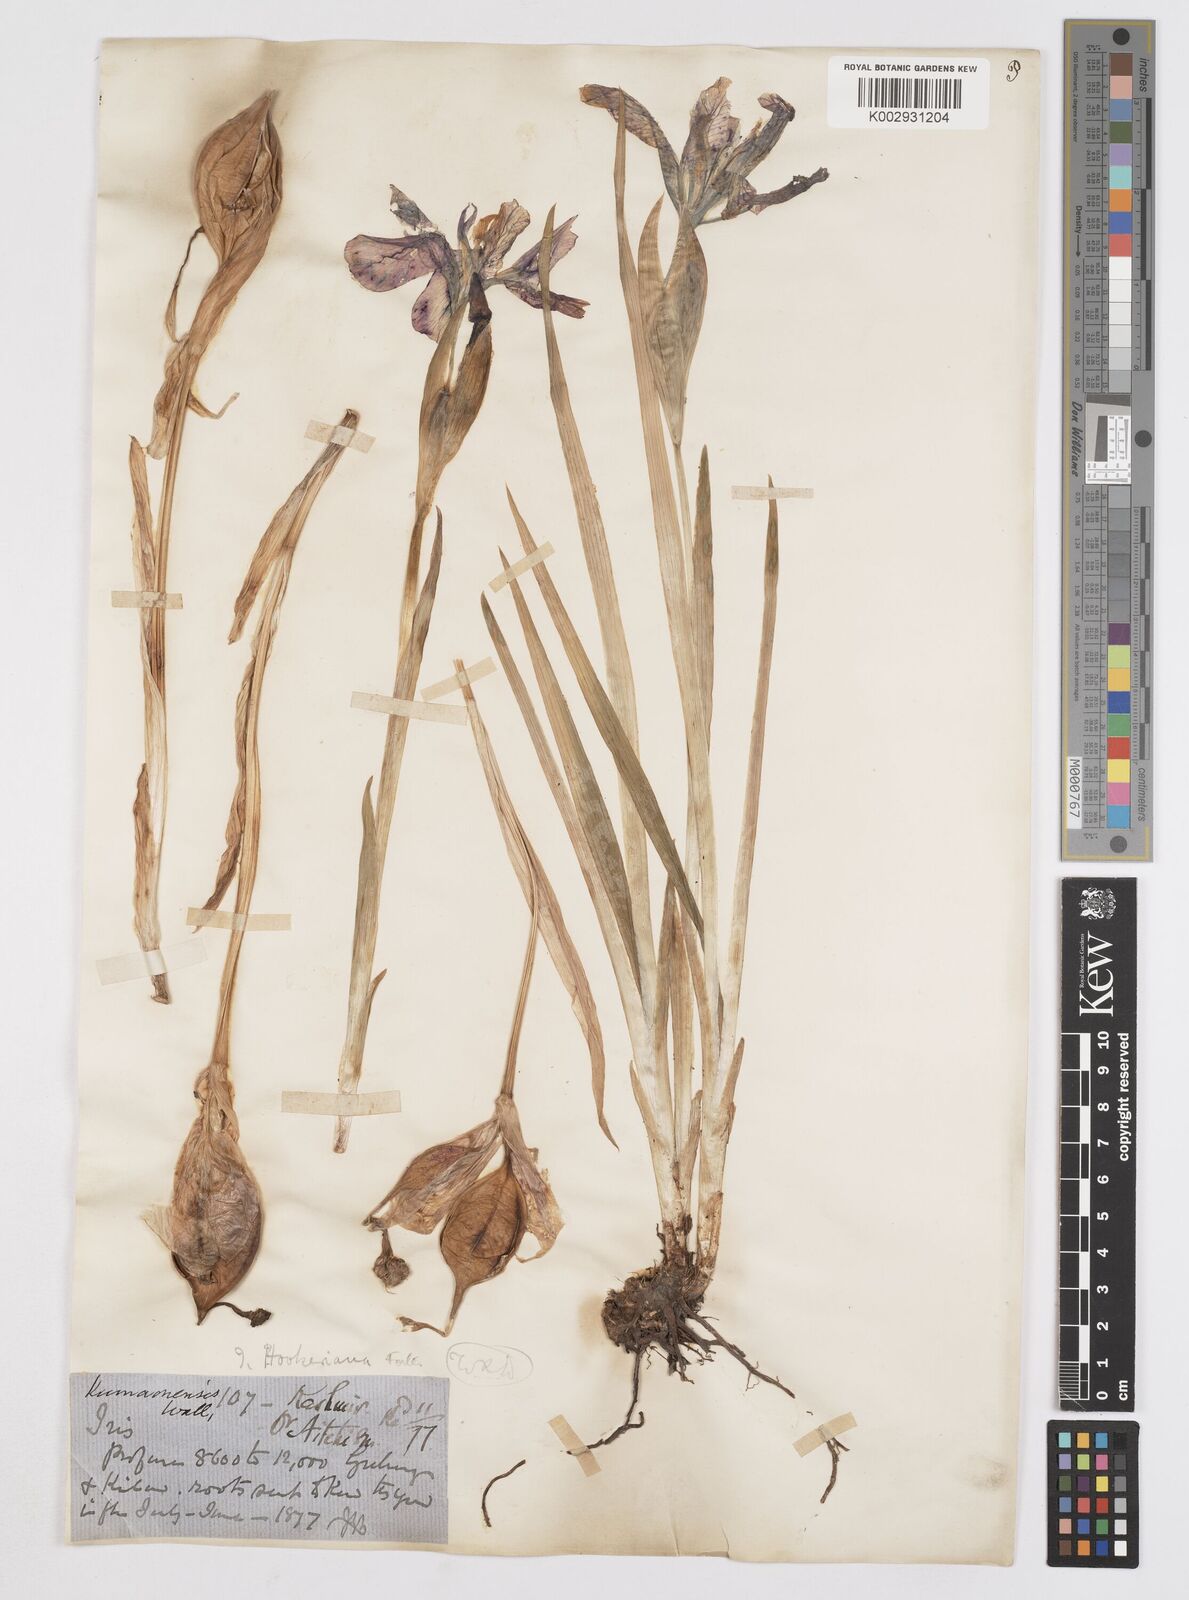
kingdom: Plantae
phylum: Tracheophyta
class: Liliopsida
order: Asparagales
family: Iridaceae
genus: Iris
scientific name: Iris hookeriana
